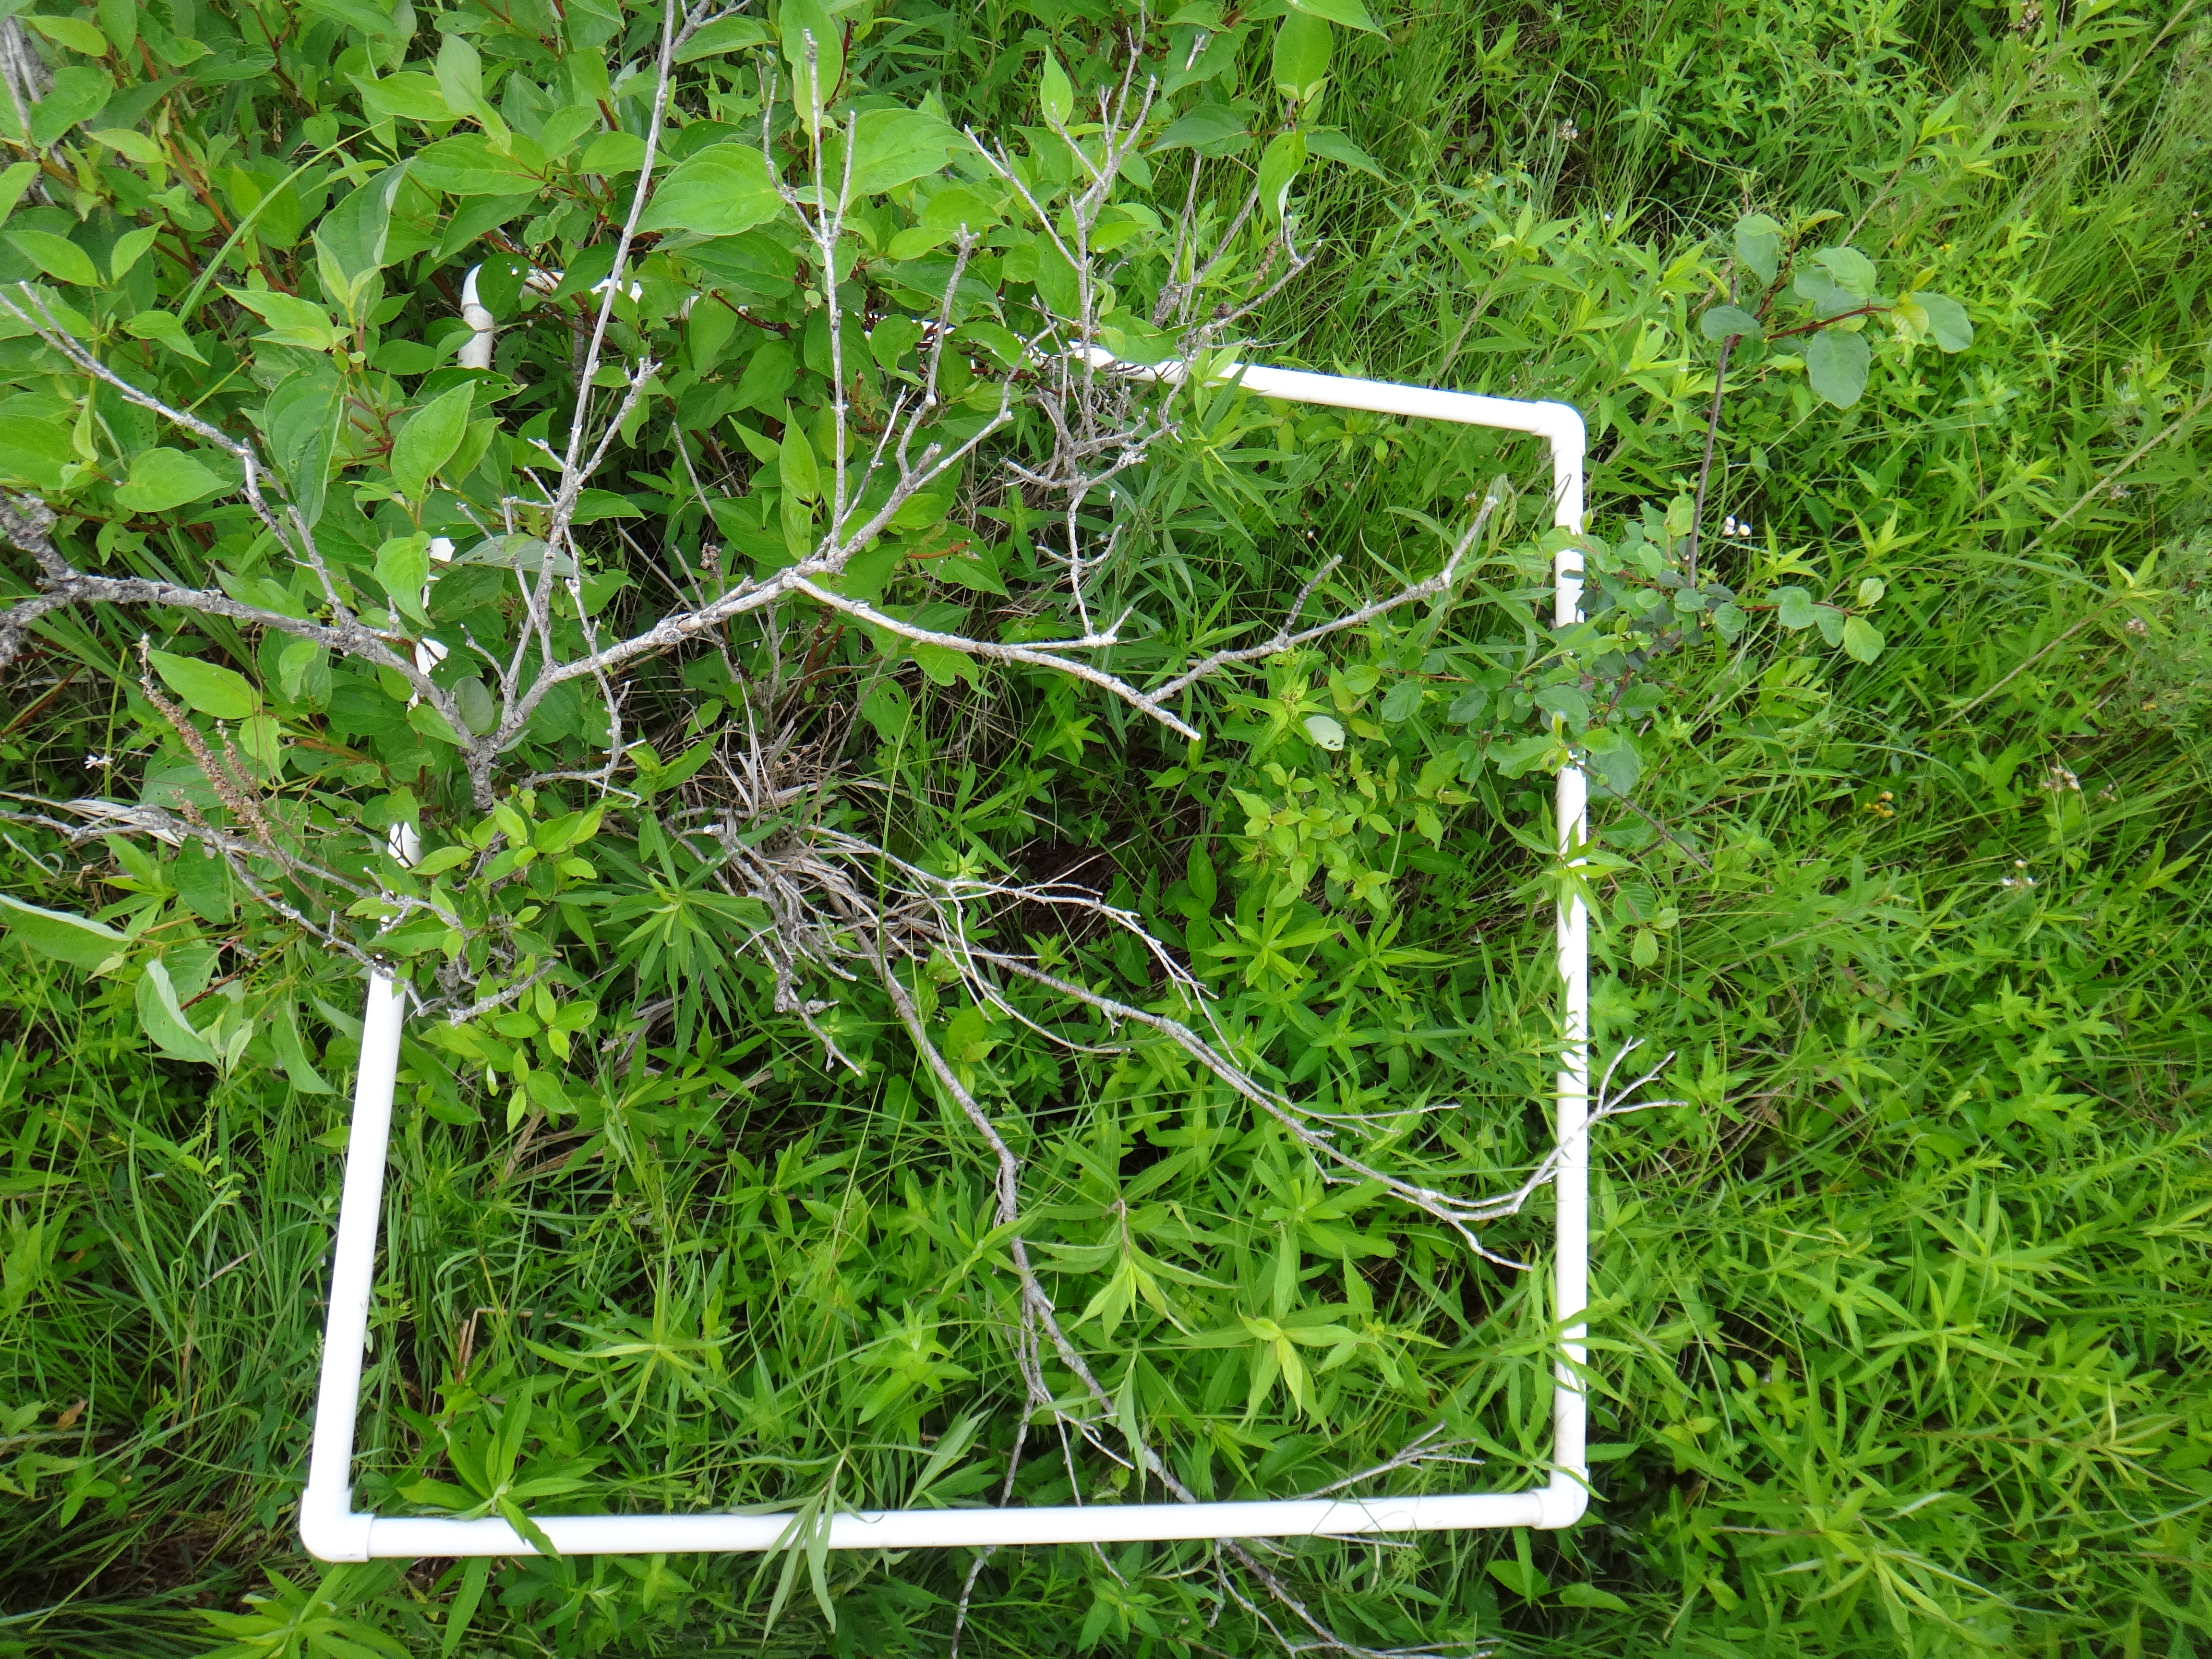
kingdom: Plantae
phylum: Tracheophyta
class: Magnoliopsida
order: Fabales
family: Fabaceae
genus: Lathyrus
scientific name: Lathyrus palustris
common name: Marsh pea
